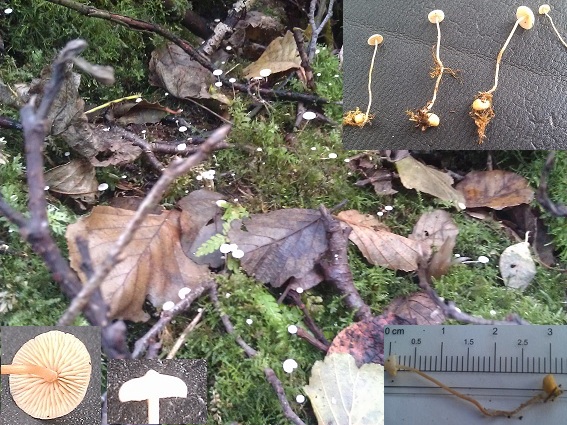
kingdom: Fungi
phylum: Basidiomycota
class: Agaricomycetes
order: Agaricales
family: Tricholomataceae
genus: Collybia
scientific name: Collybia cookei
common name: gulknoldet lighat
